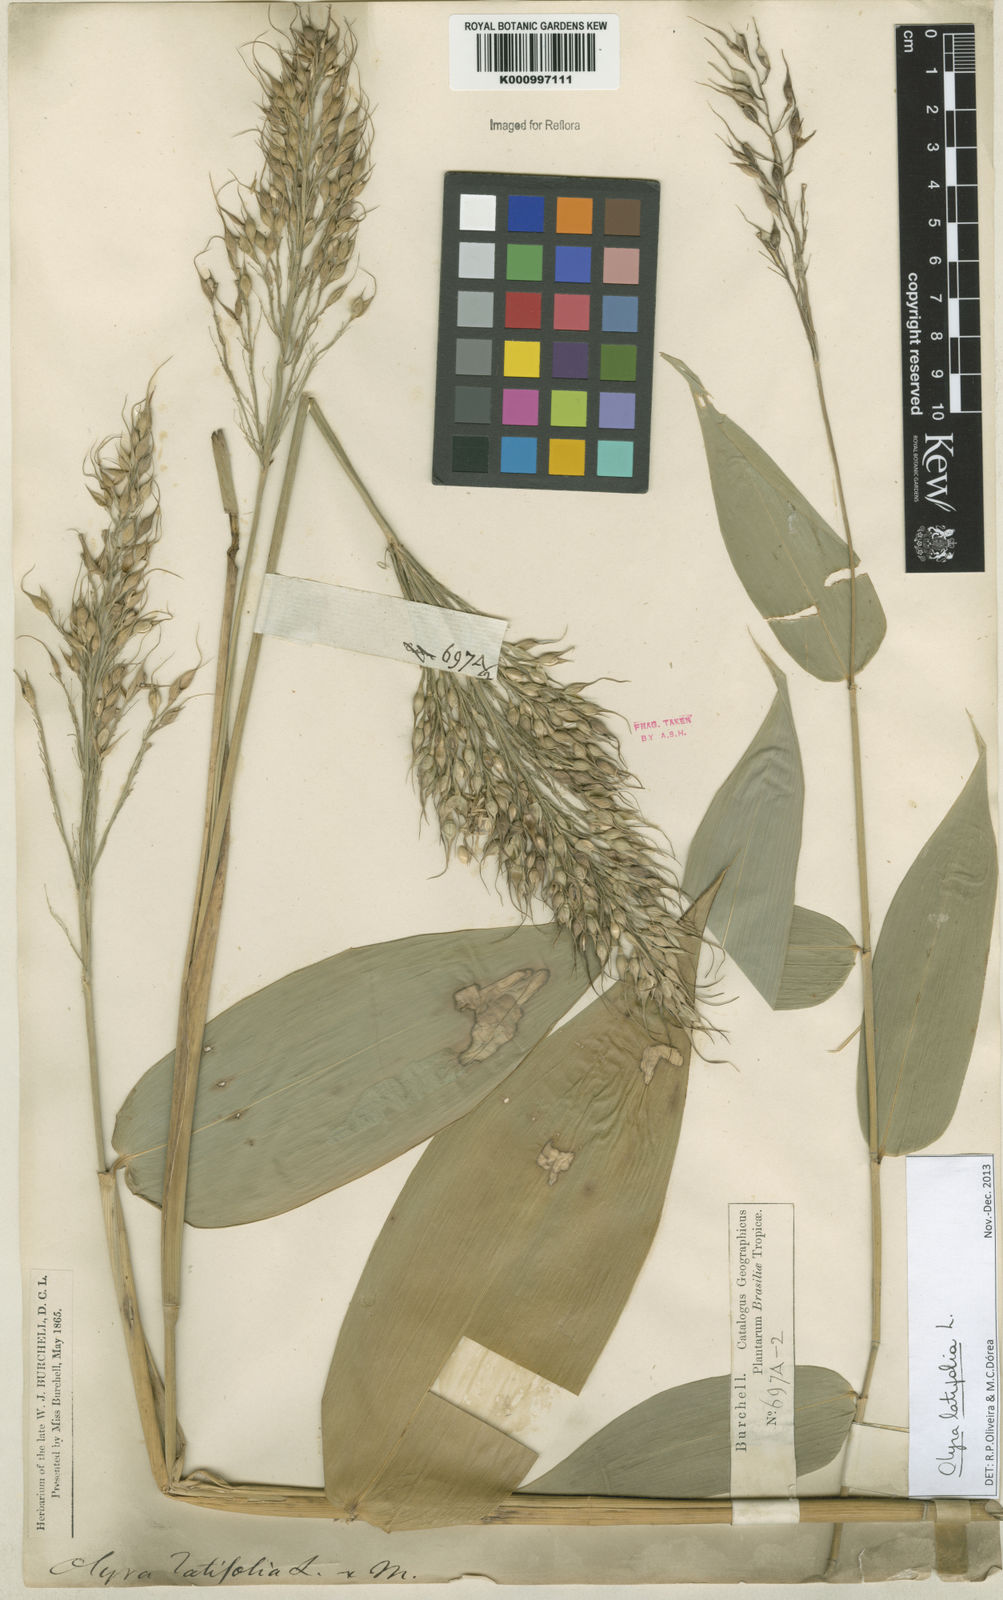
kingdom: Plantae
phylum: Tracheophyta
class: Liliopsida
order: Poales
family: Poaceae
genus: Olyra
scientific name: Olyra latifolia
